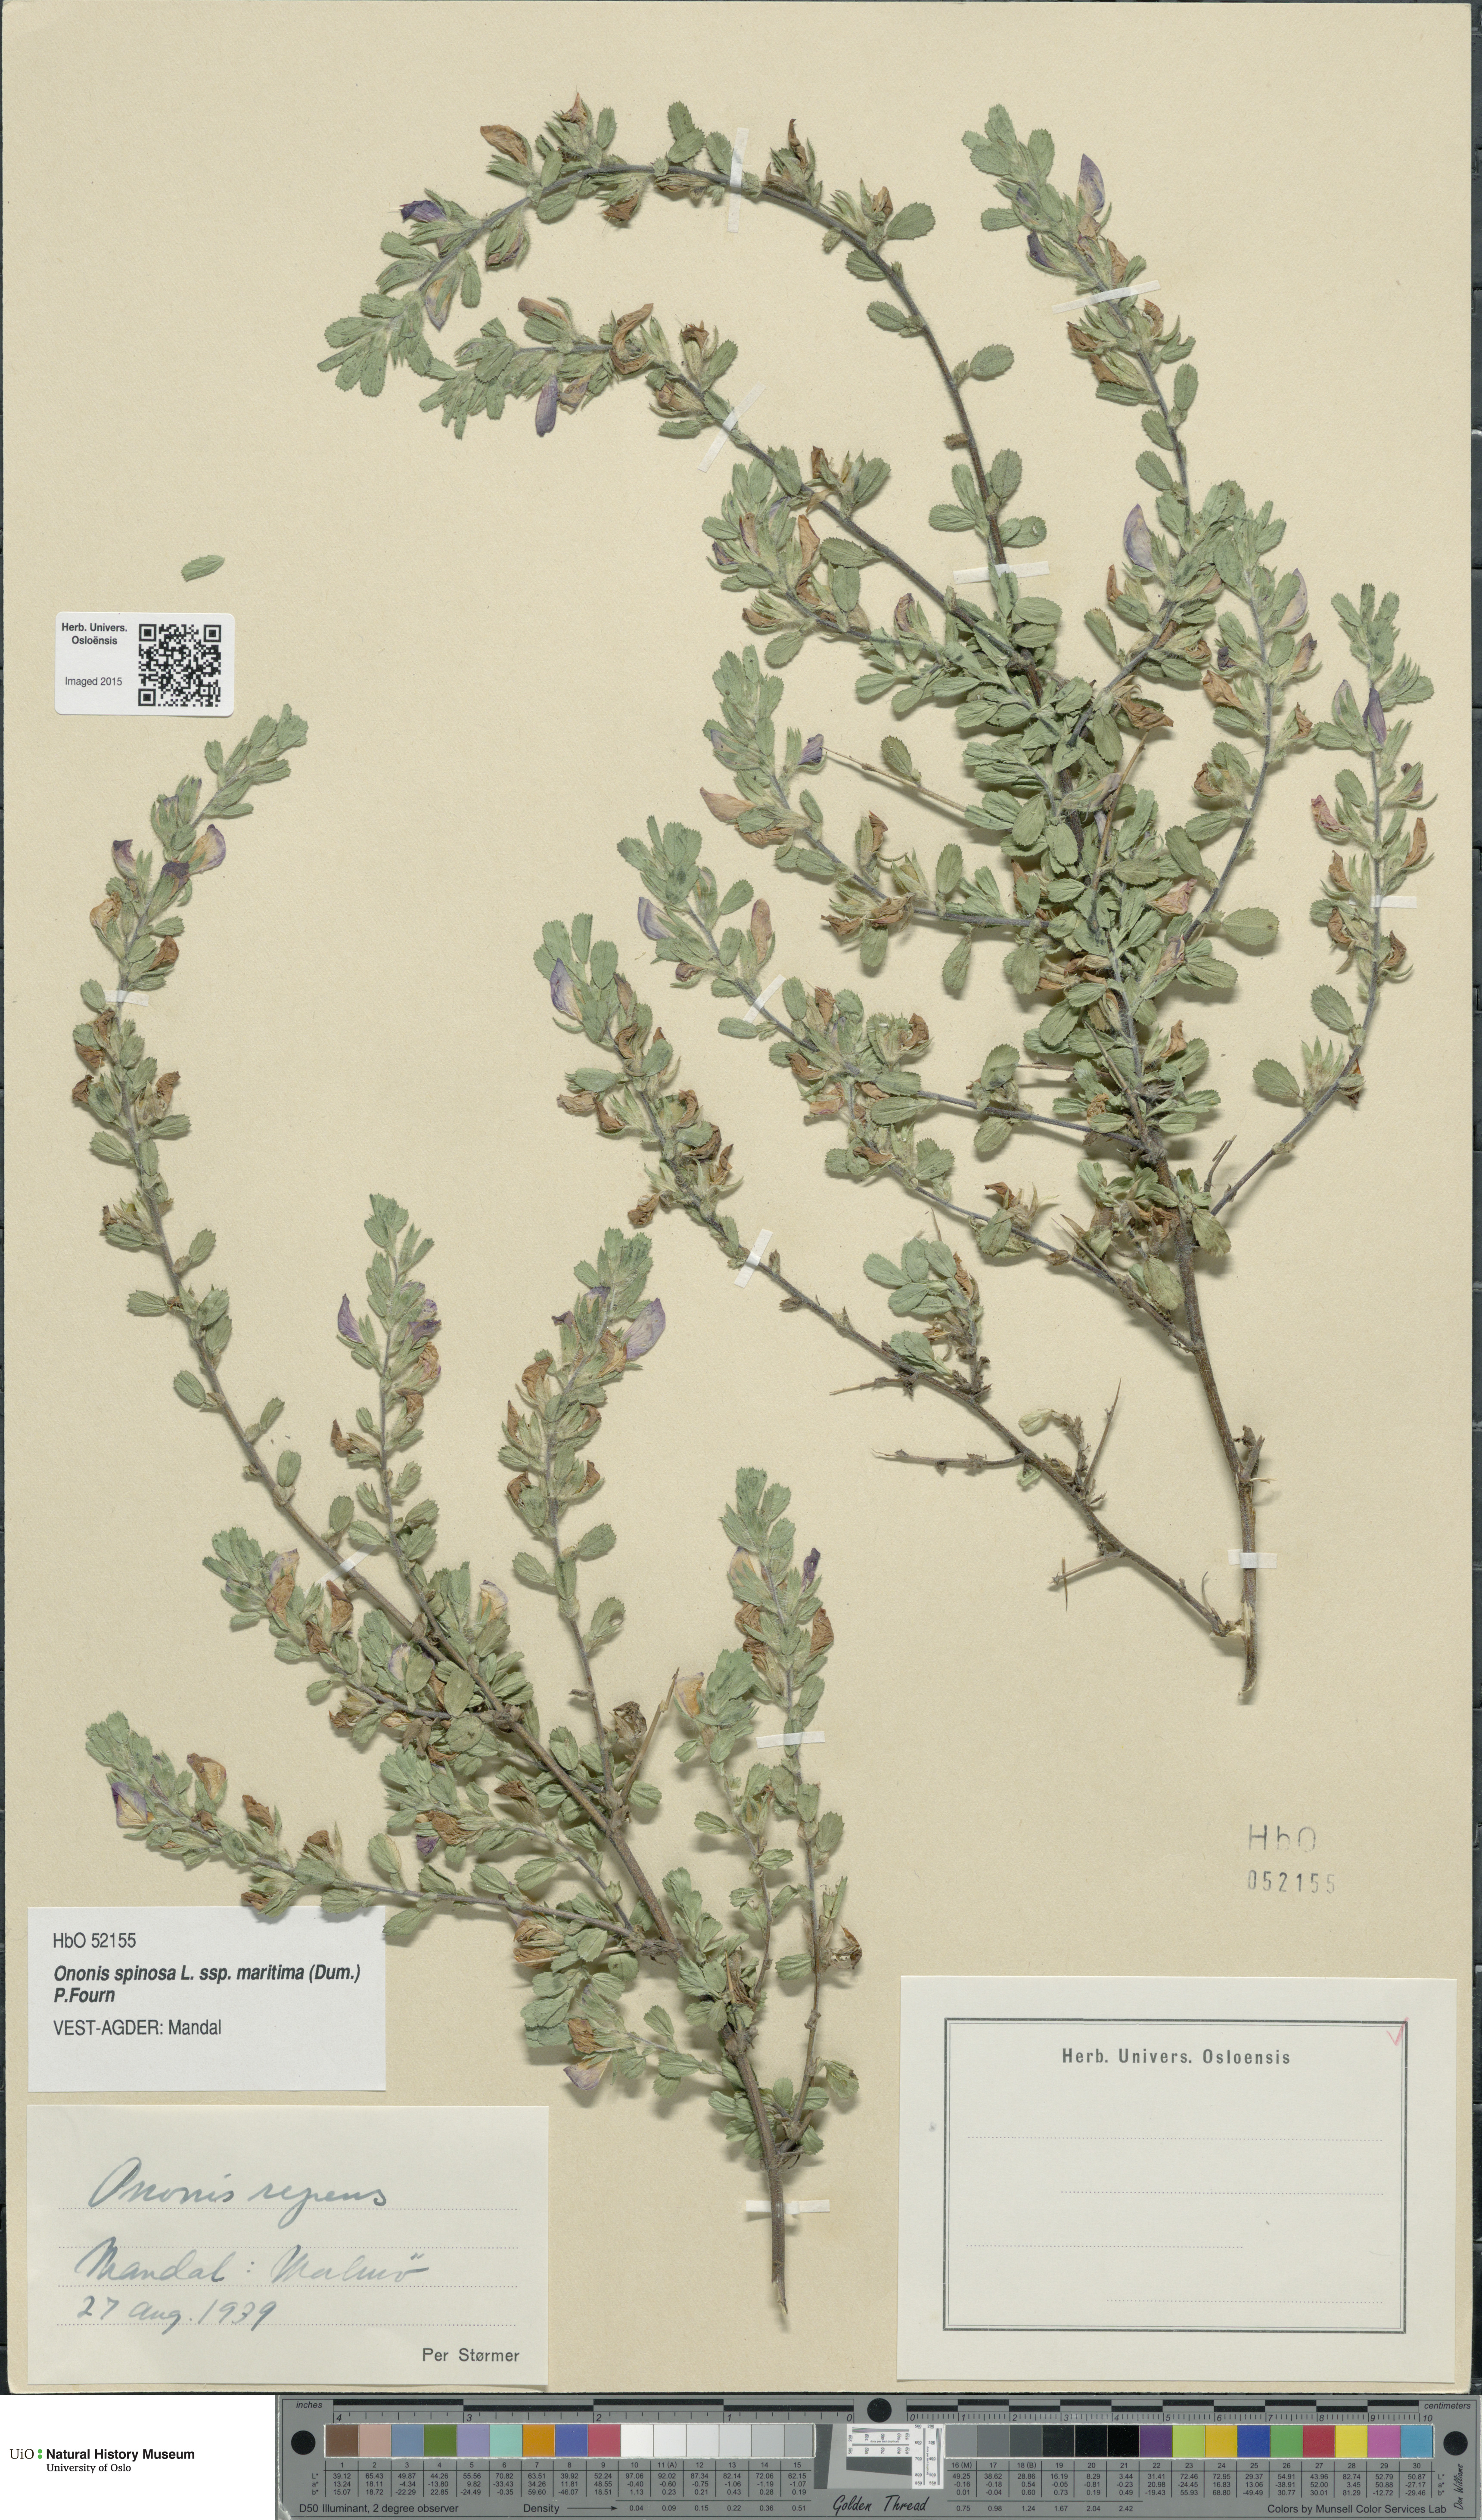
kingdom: Plantae
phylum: Tracheophyta
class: Magnoliopsida
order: Fabales
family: Fabaceae
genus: Ononis
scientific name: Ononis spinosa
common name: Spiny restharrow
